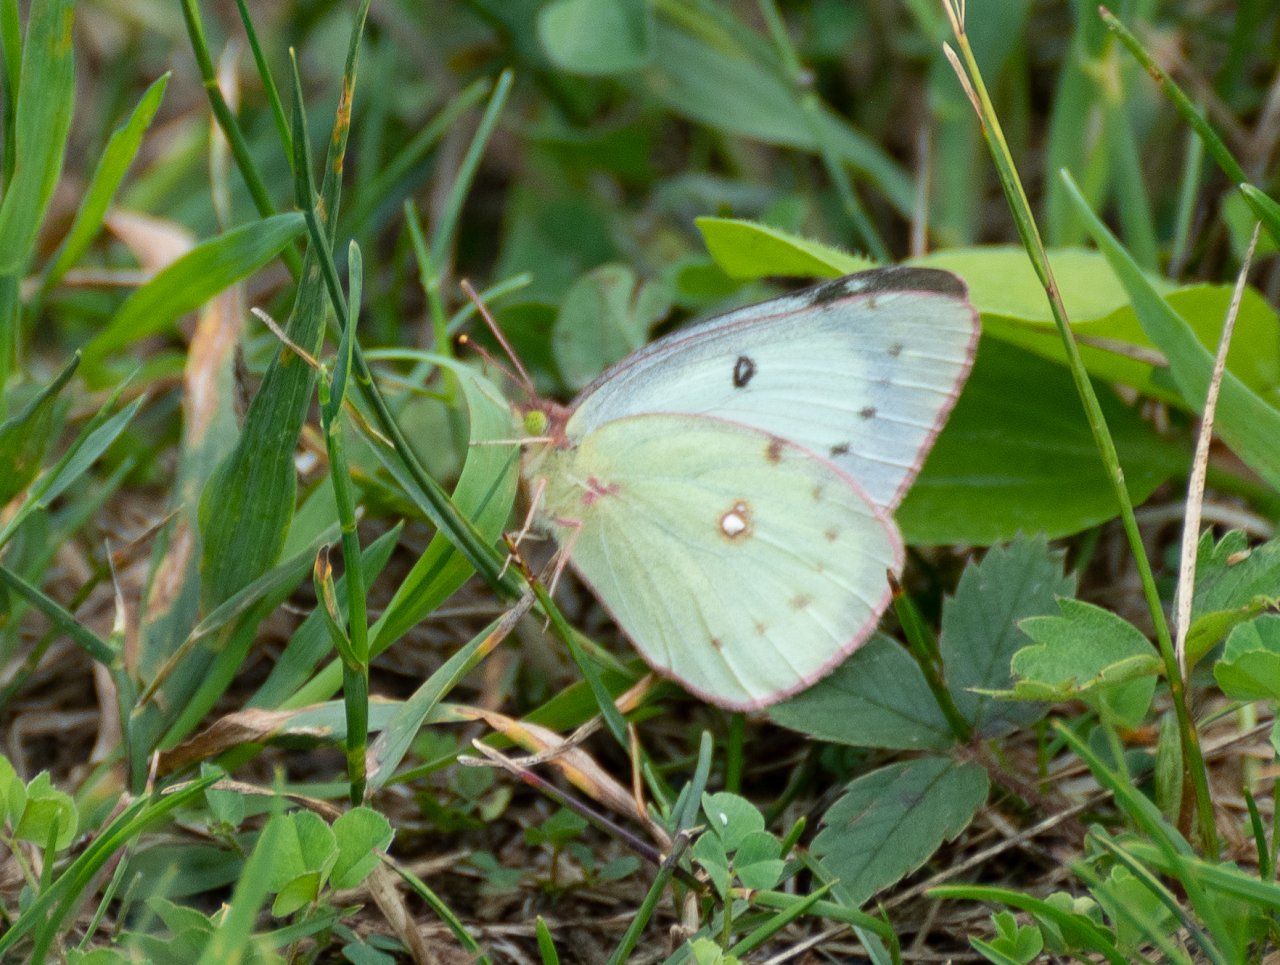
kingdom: Animalia
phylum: Arthropoda
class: Insecta
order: Lepidoptera
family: Pieridae
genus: Colias
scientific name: Colias philodice
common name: Clouded Sulphur
